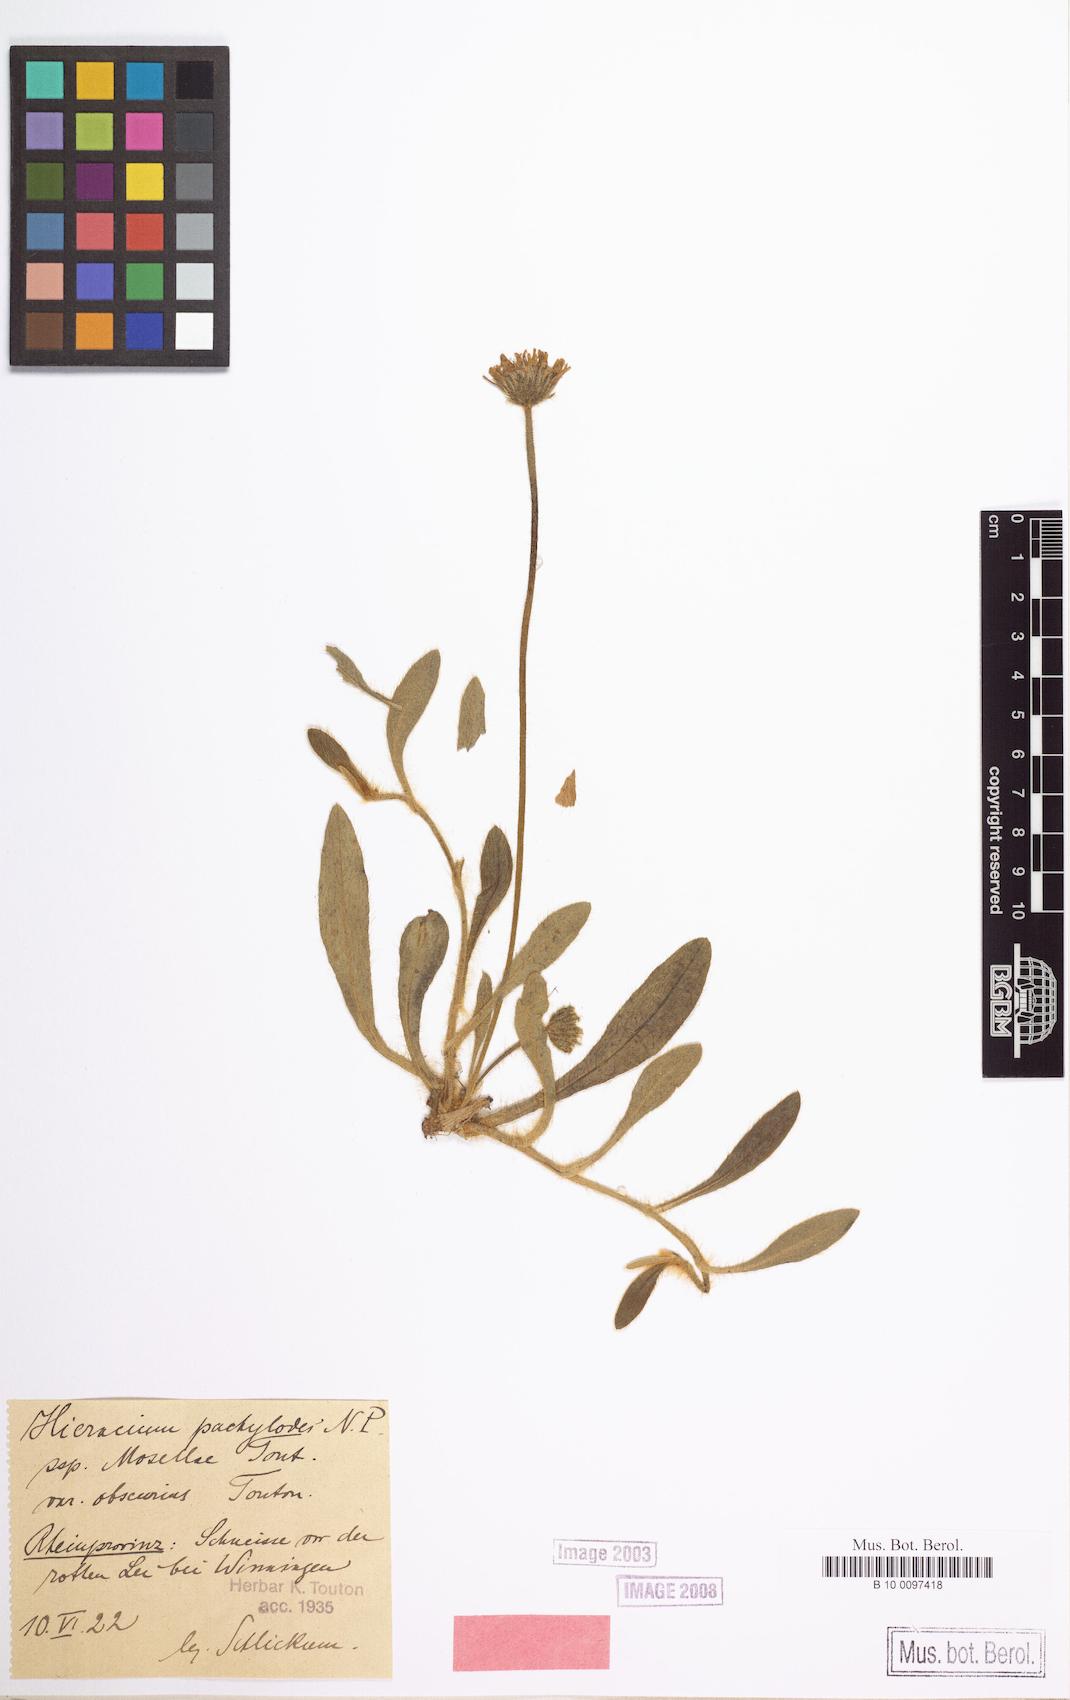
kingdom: Plantae
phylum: Tracheophyta
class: Magnoliopsida
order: Asterales
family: Asteraceae
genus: Pilosella
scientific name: Pilosella longisquama
